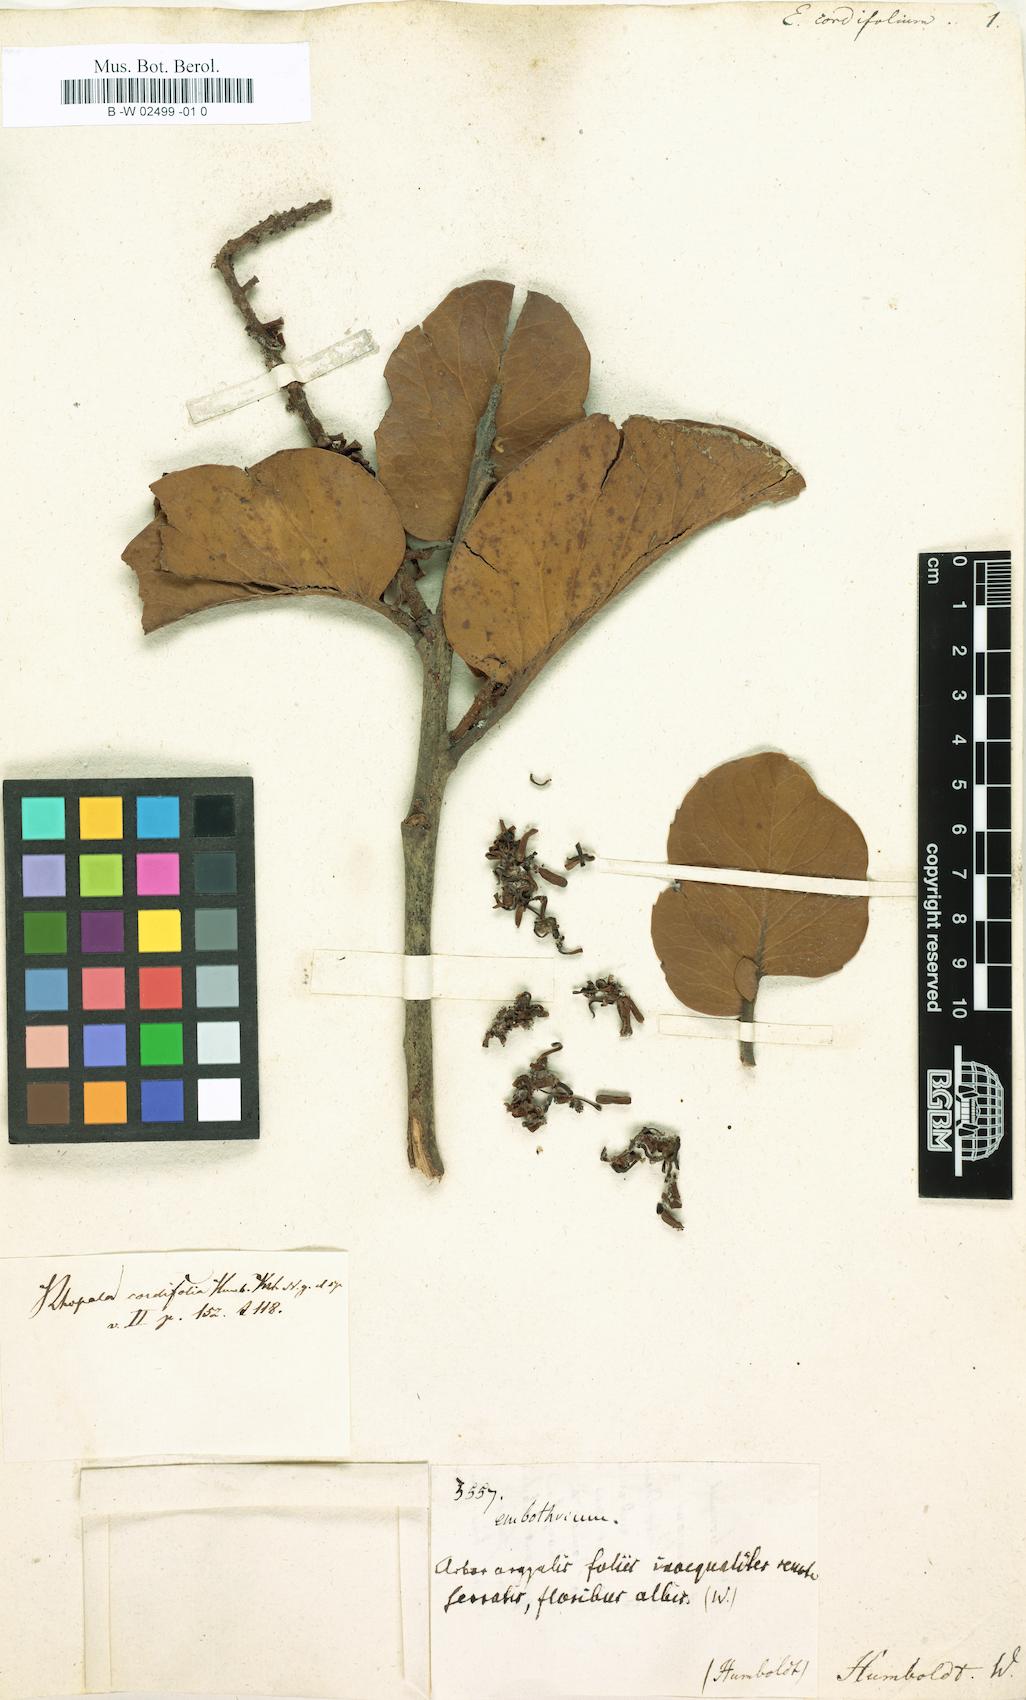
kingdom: Plantae
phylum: Tracheophyta
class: Magnoliopsida
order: Proteales
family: Proteaceae
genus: Roupala
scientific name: Roupala cordifolia
